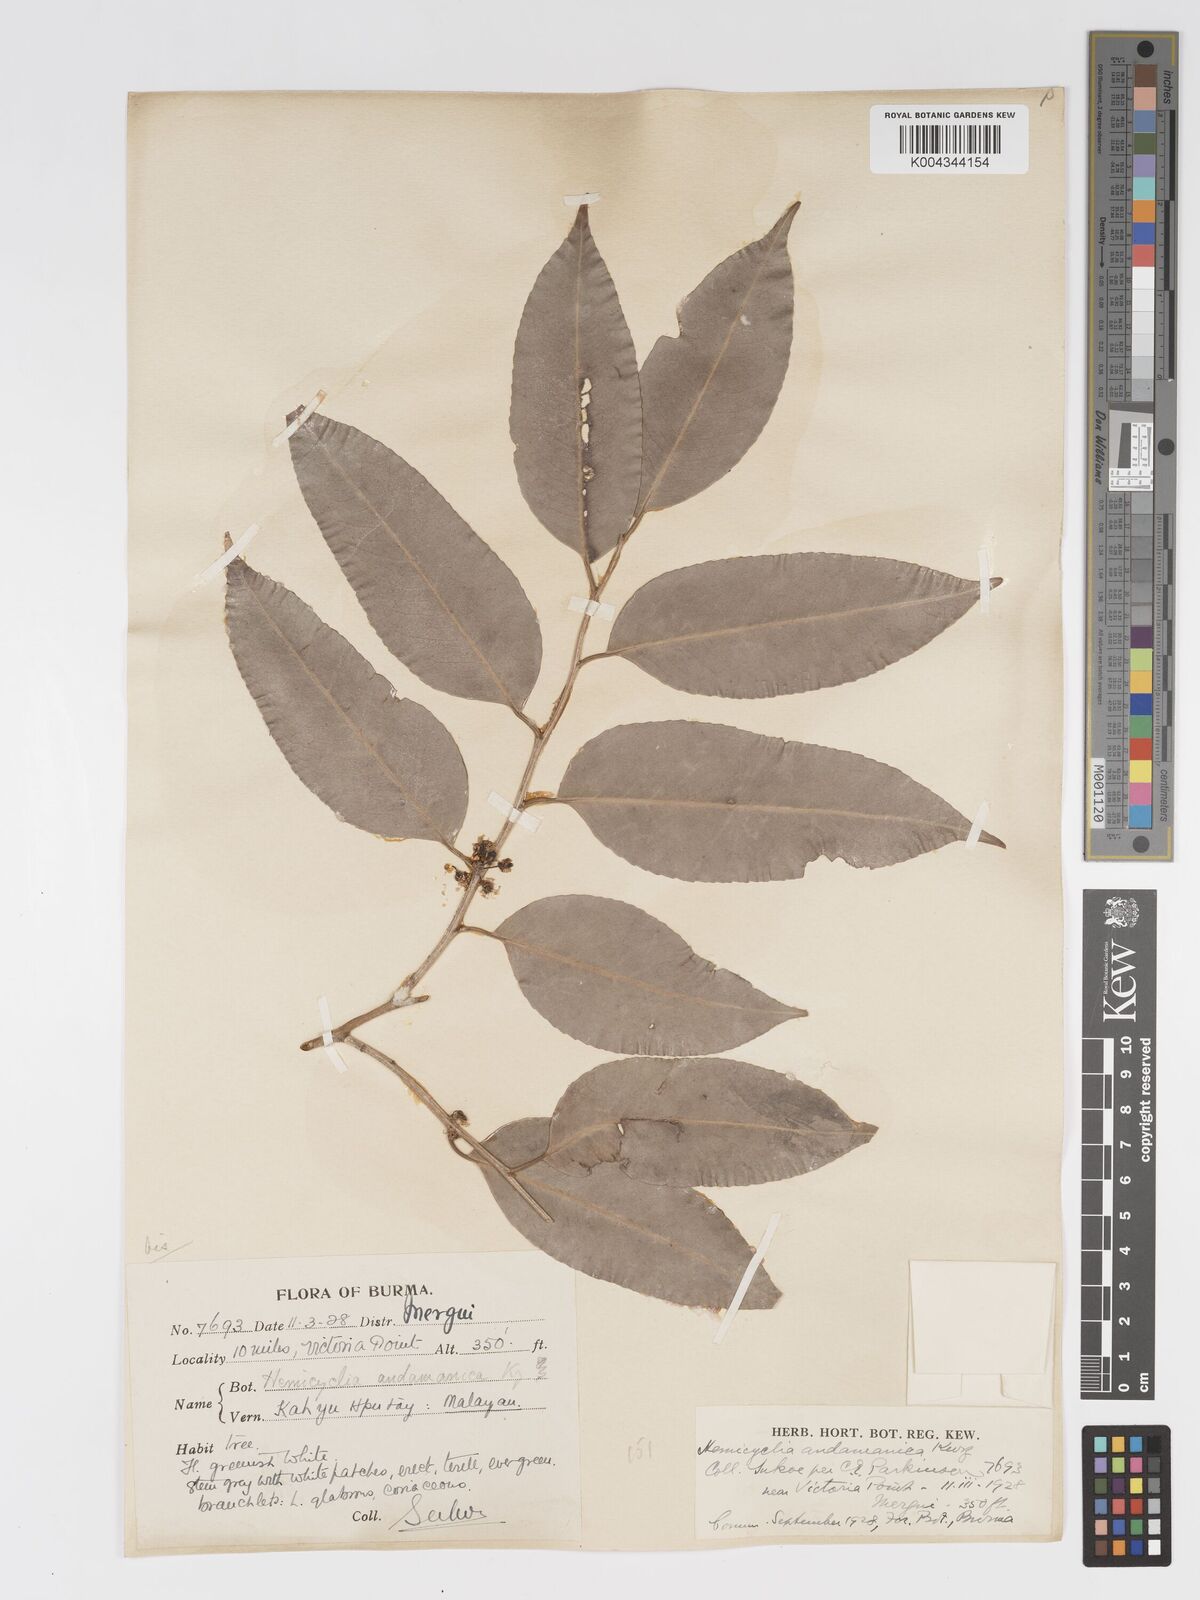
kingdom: Plantae
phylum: Tracheophyta
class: Magnoliopsida
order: Malpighiales
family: Putranjivaceae
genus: Drypetes
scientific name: Drypetes andamanica
